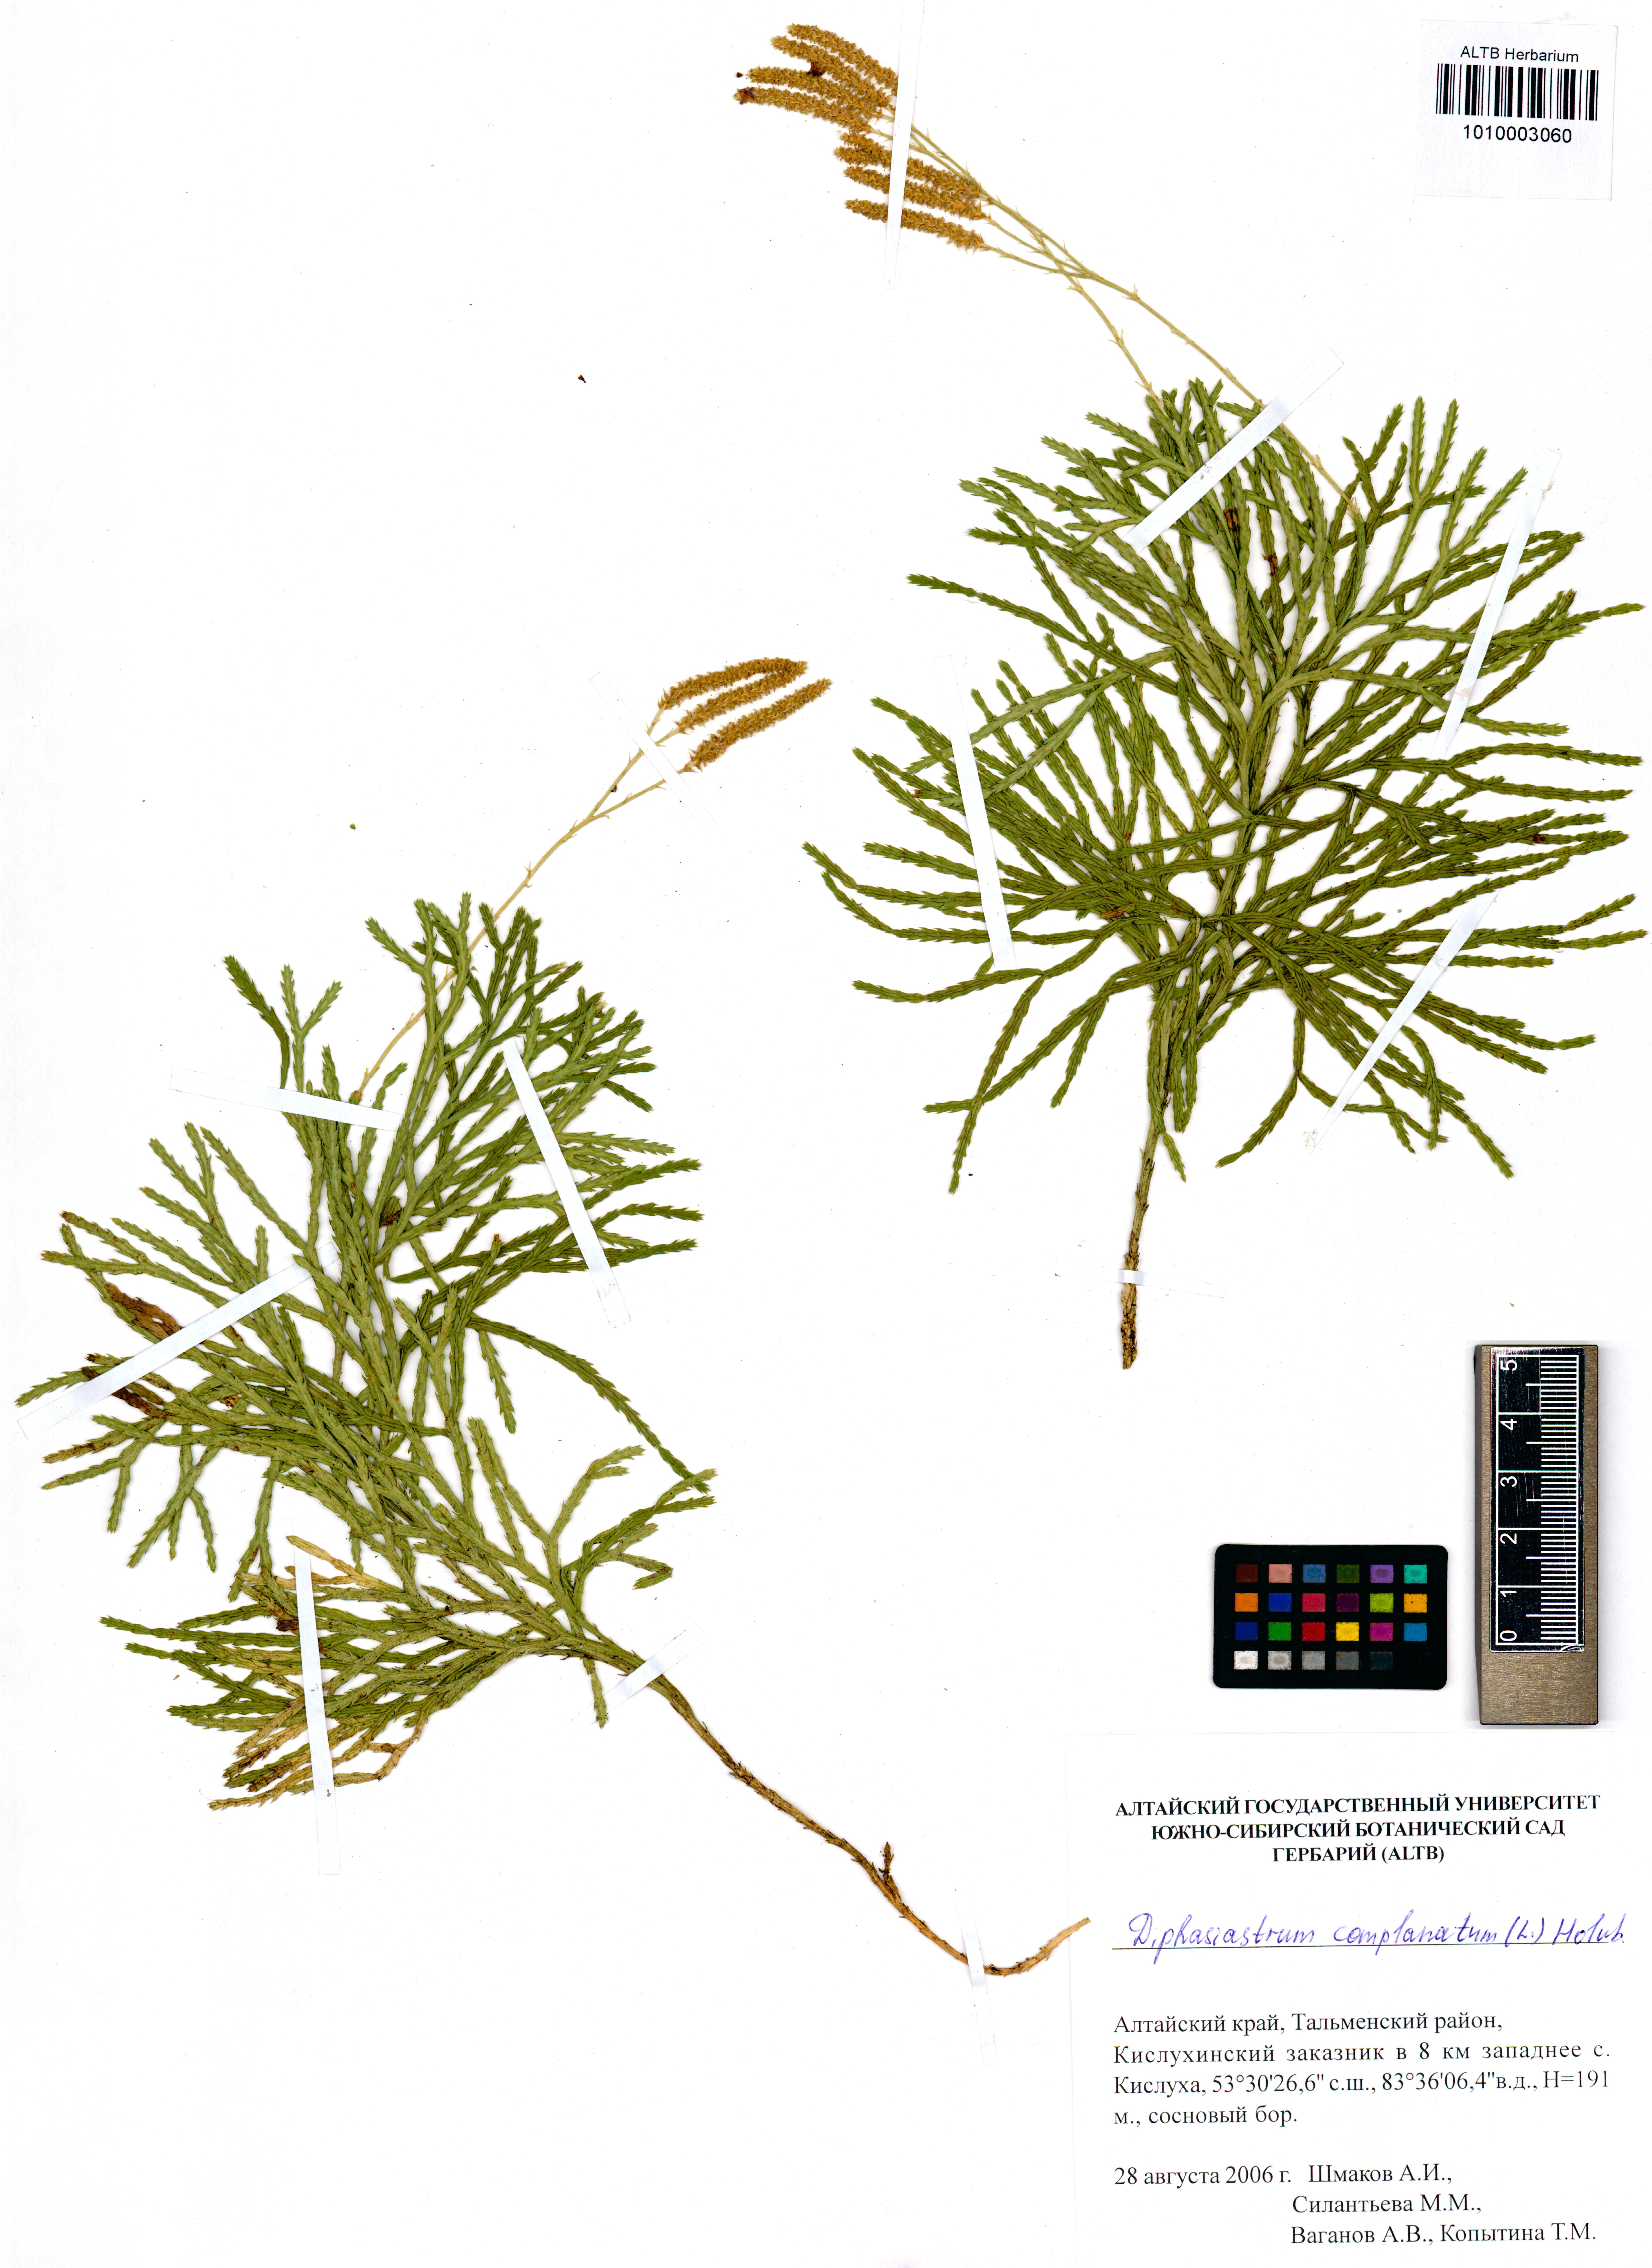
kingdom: Plantae
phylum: Tracheophyta
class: Lycopodiopsida
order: Lycopodiales
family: Lycopodiaceae
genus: Diphasiastrum
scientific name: Diphasiastrum complanatum
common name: Northern running-pine
